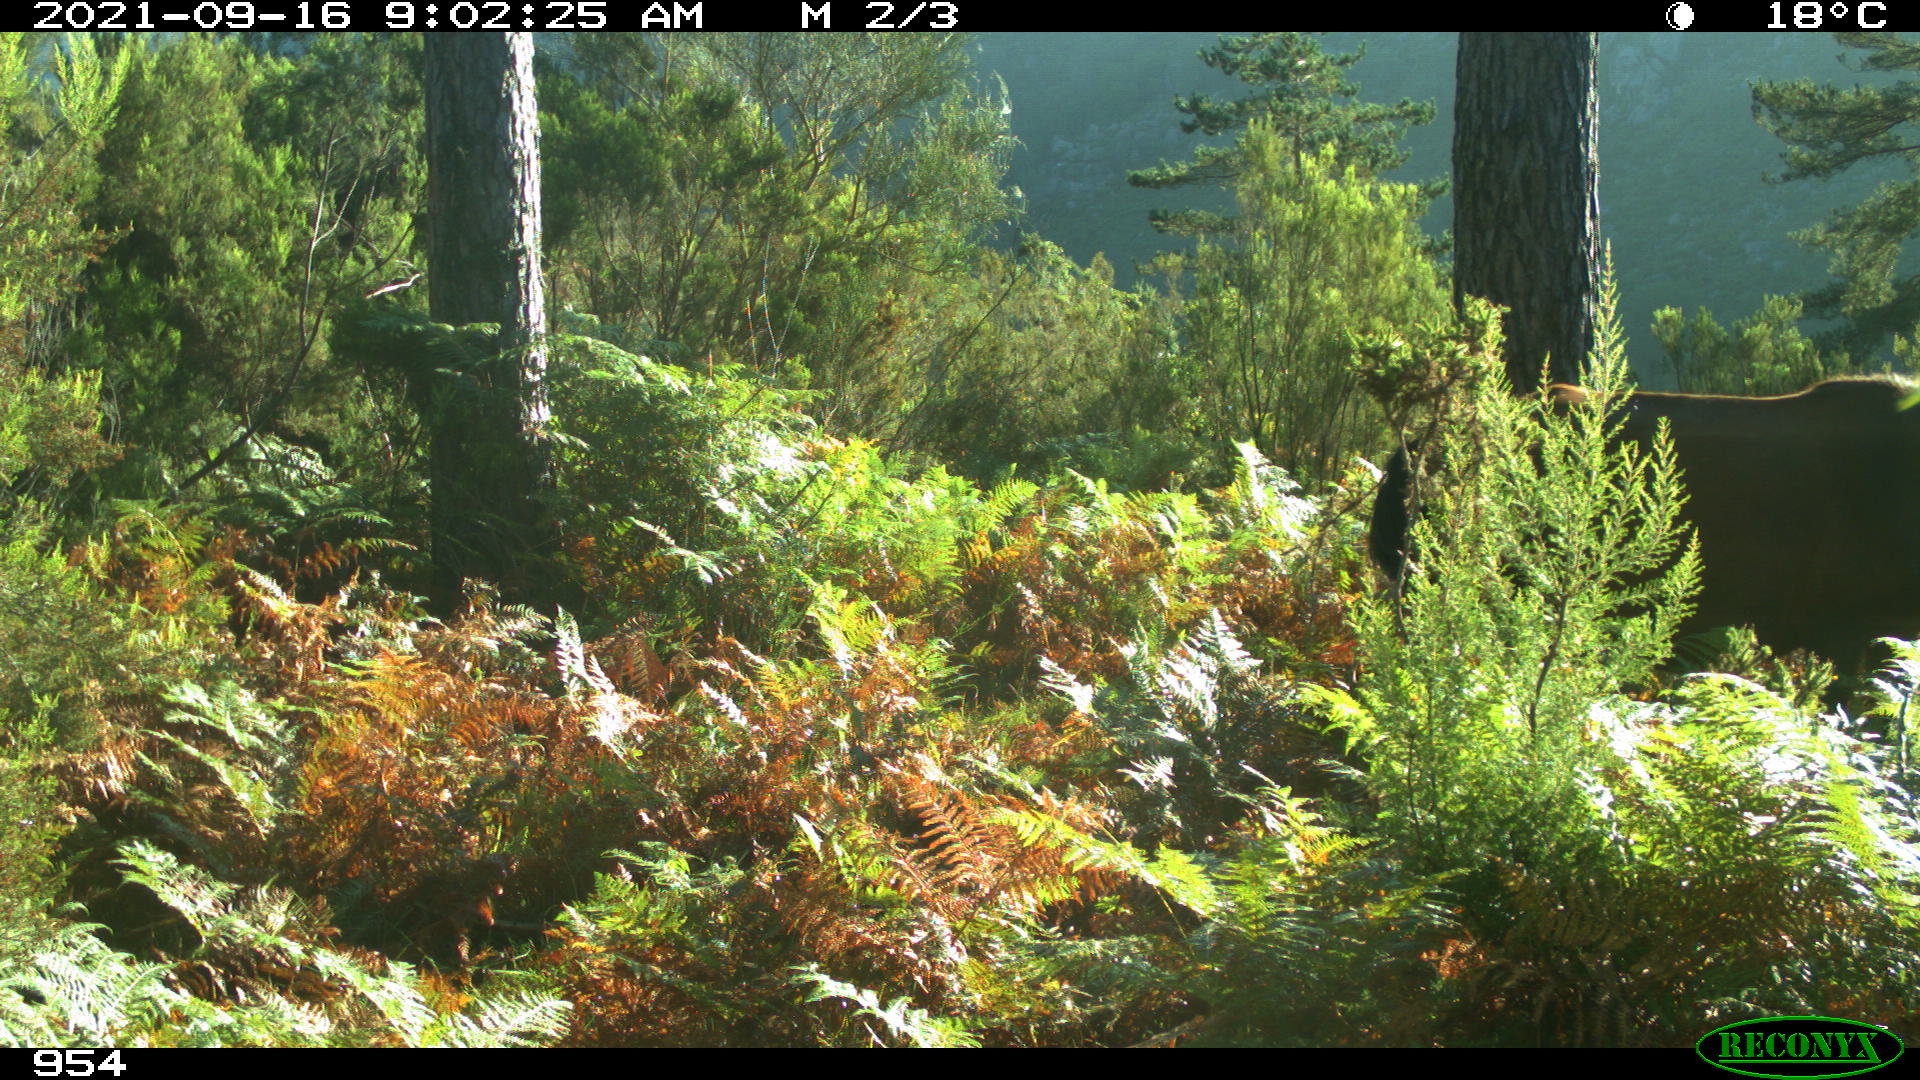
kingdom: Animalia
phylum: Chordata
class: Mammalia
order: Perissodactyla
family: Equidae
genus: Equus
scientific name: Equus caballus
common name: Horse
